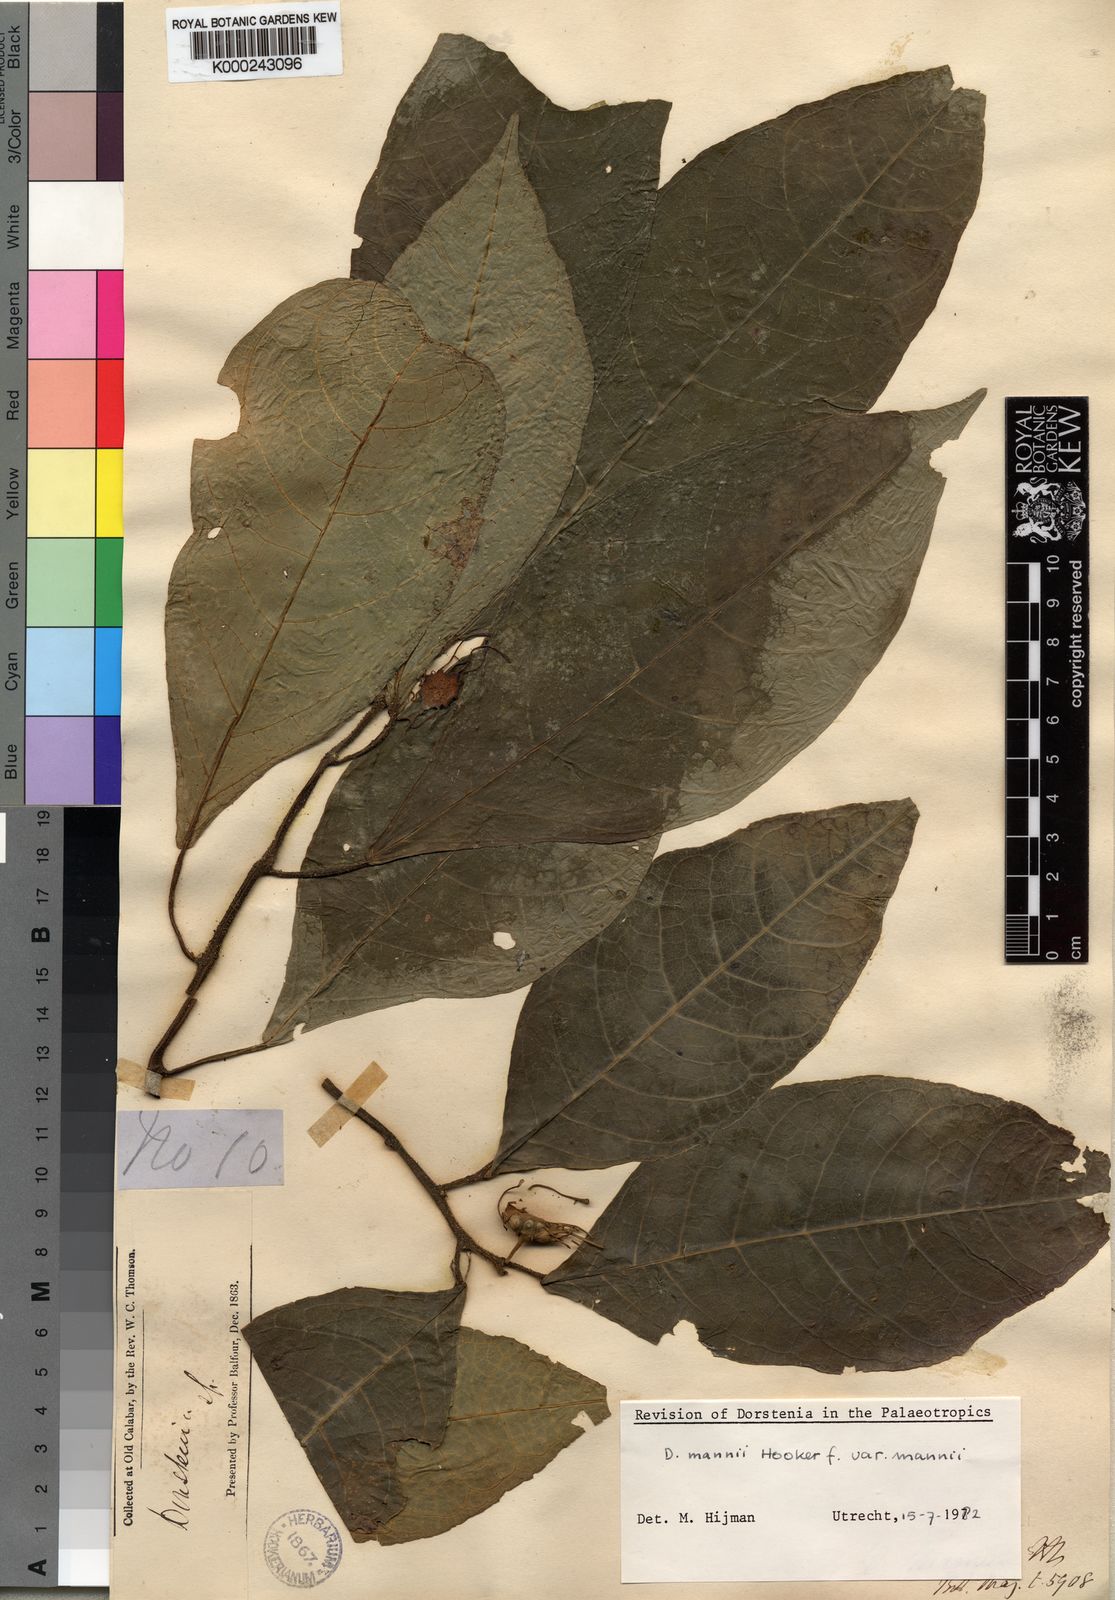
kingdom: Plantae
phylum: Tracheophyta
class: Magnoliopsida
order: Rosales
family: Moraceae
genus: Dorstenia
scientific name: Dorstenia mannii
